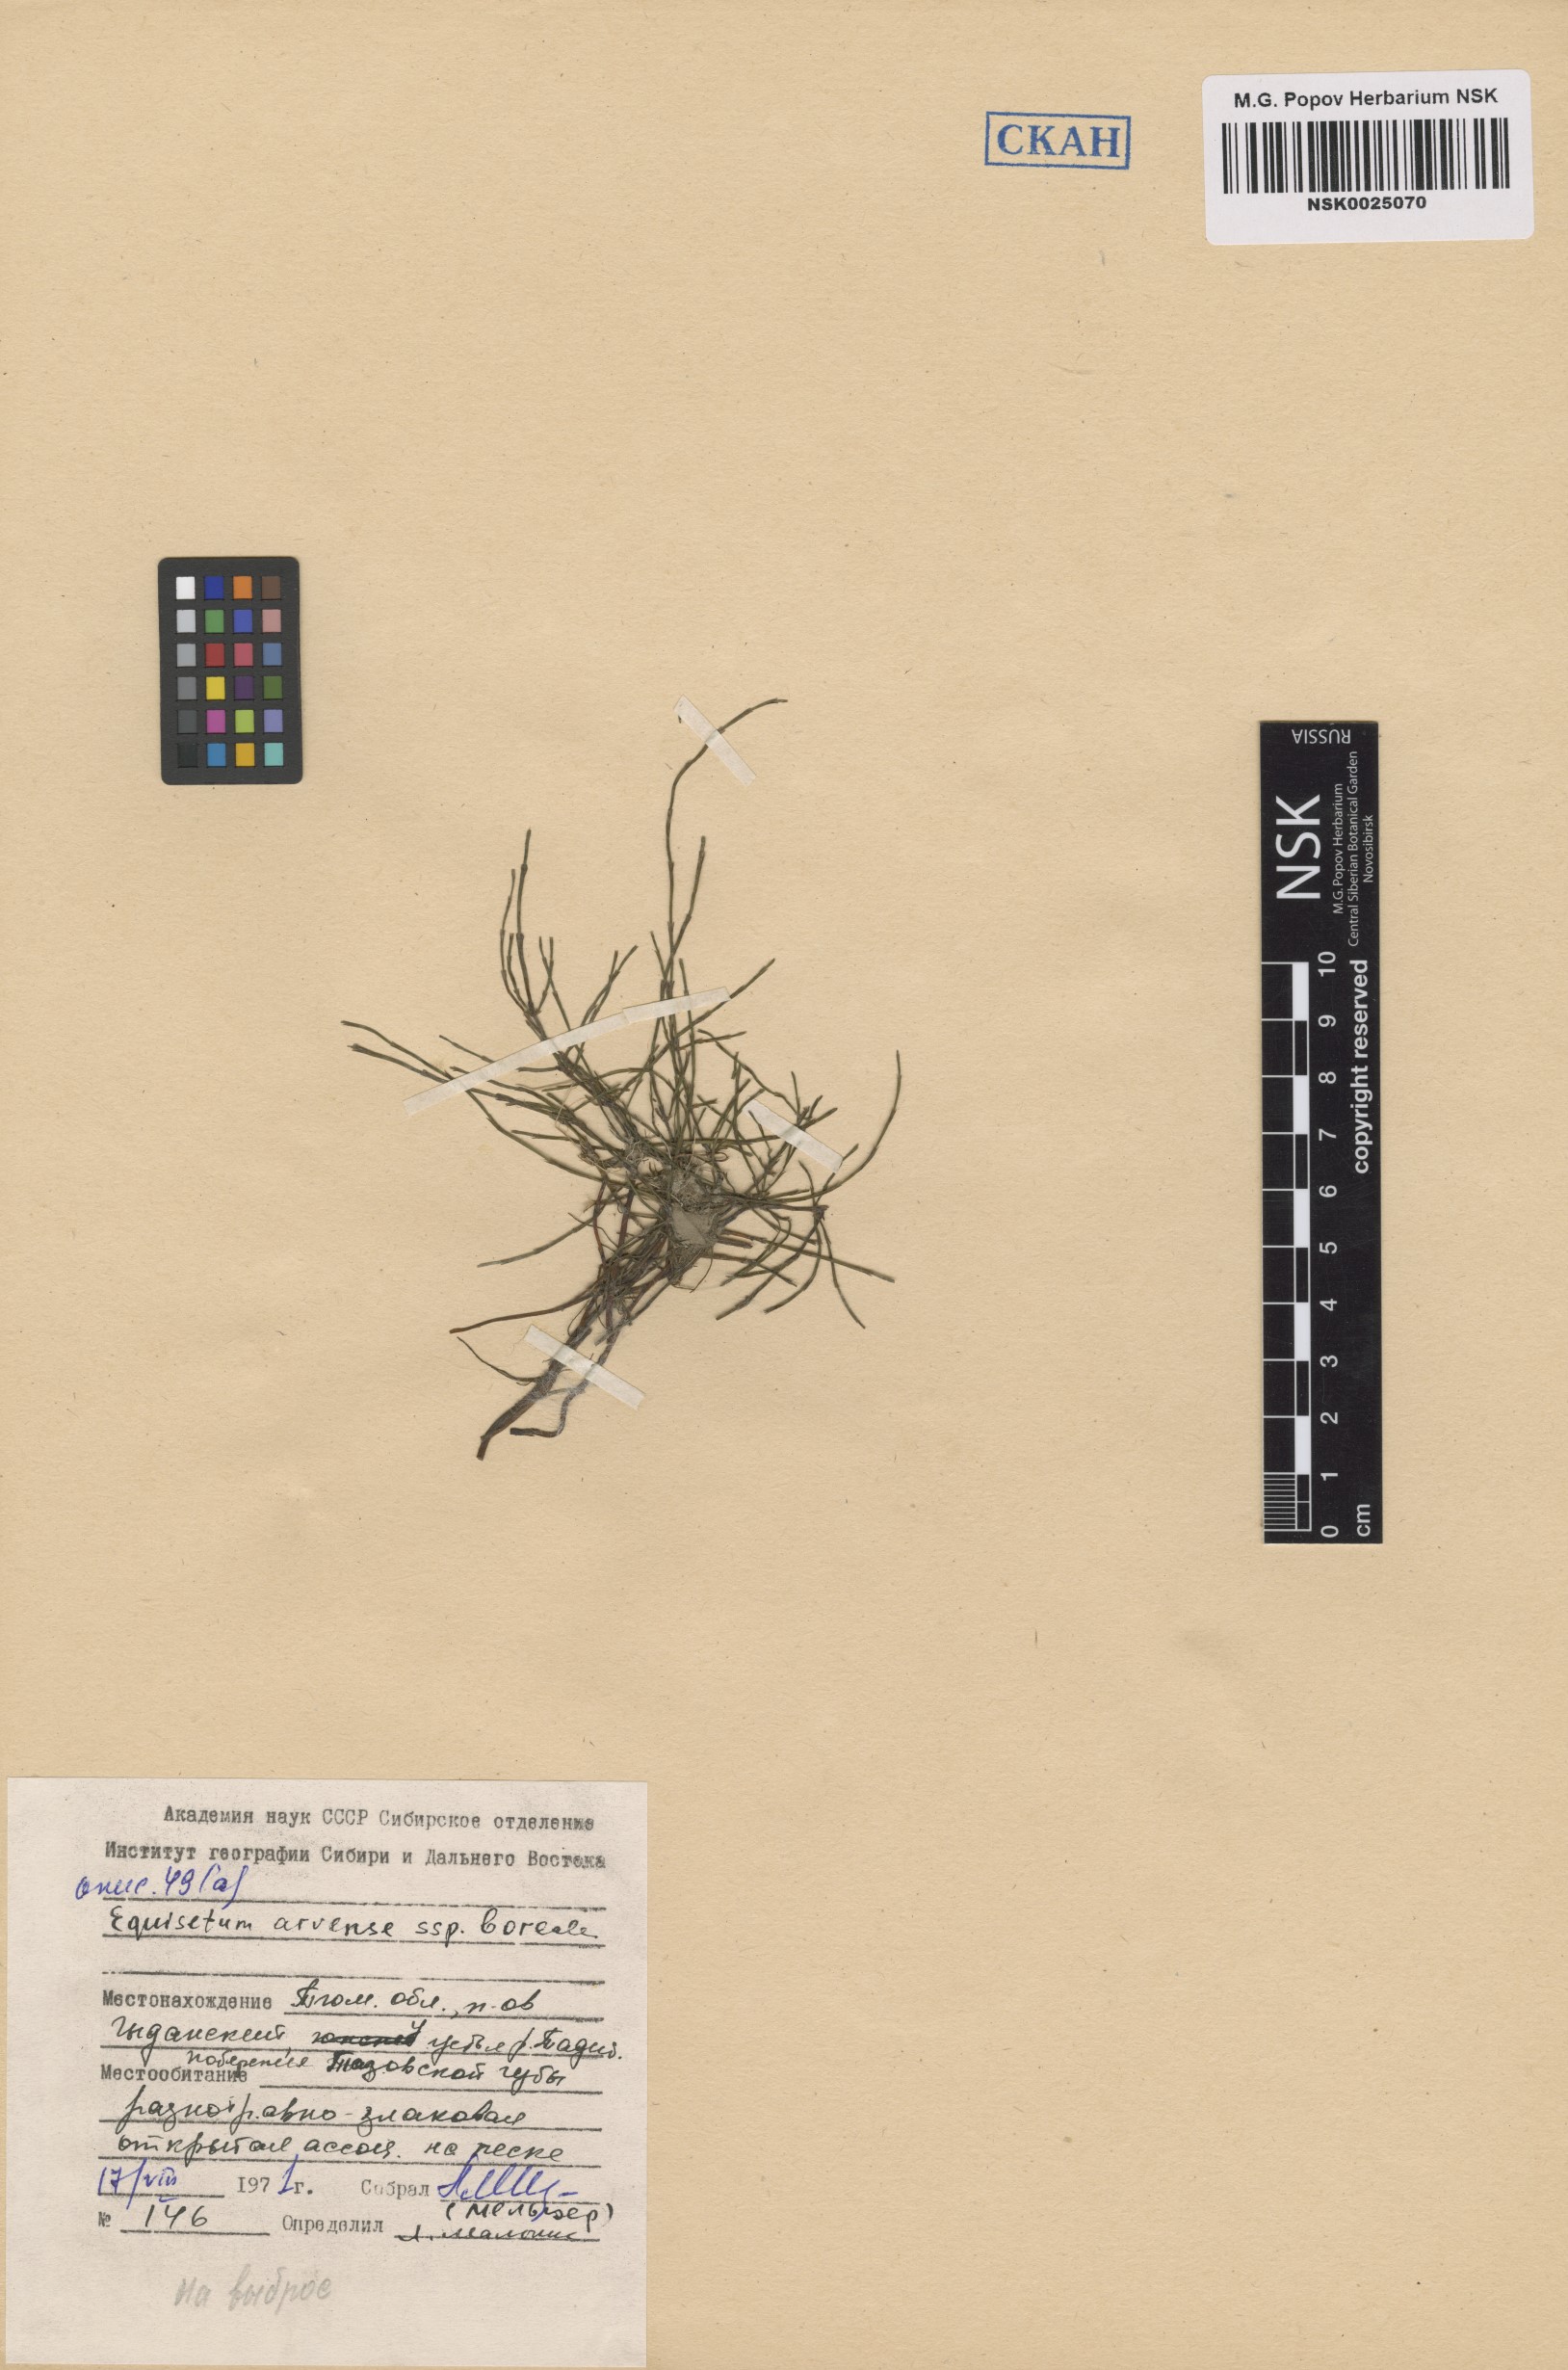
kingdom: Plantae
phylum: Tracheophyta
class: Polypodiopsida
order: Equisetales
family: Equisetaceae
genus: Equisetum
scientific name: Equisetum arvense
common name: Field horsetail
